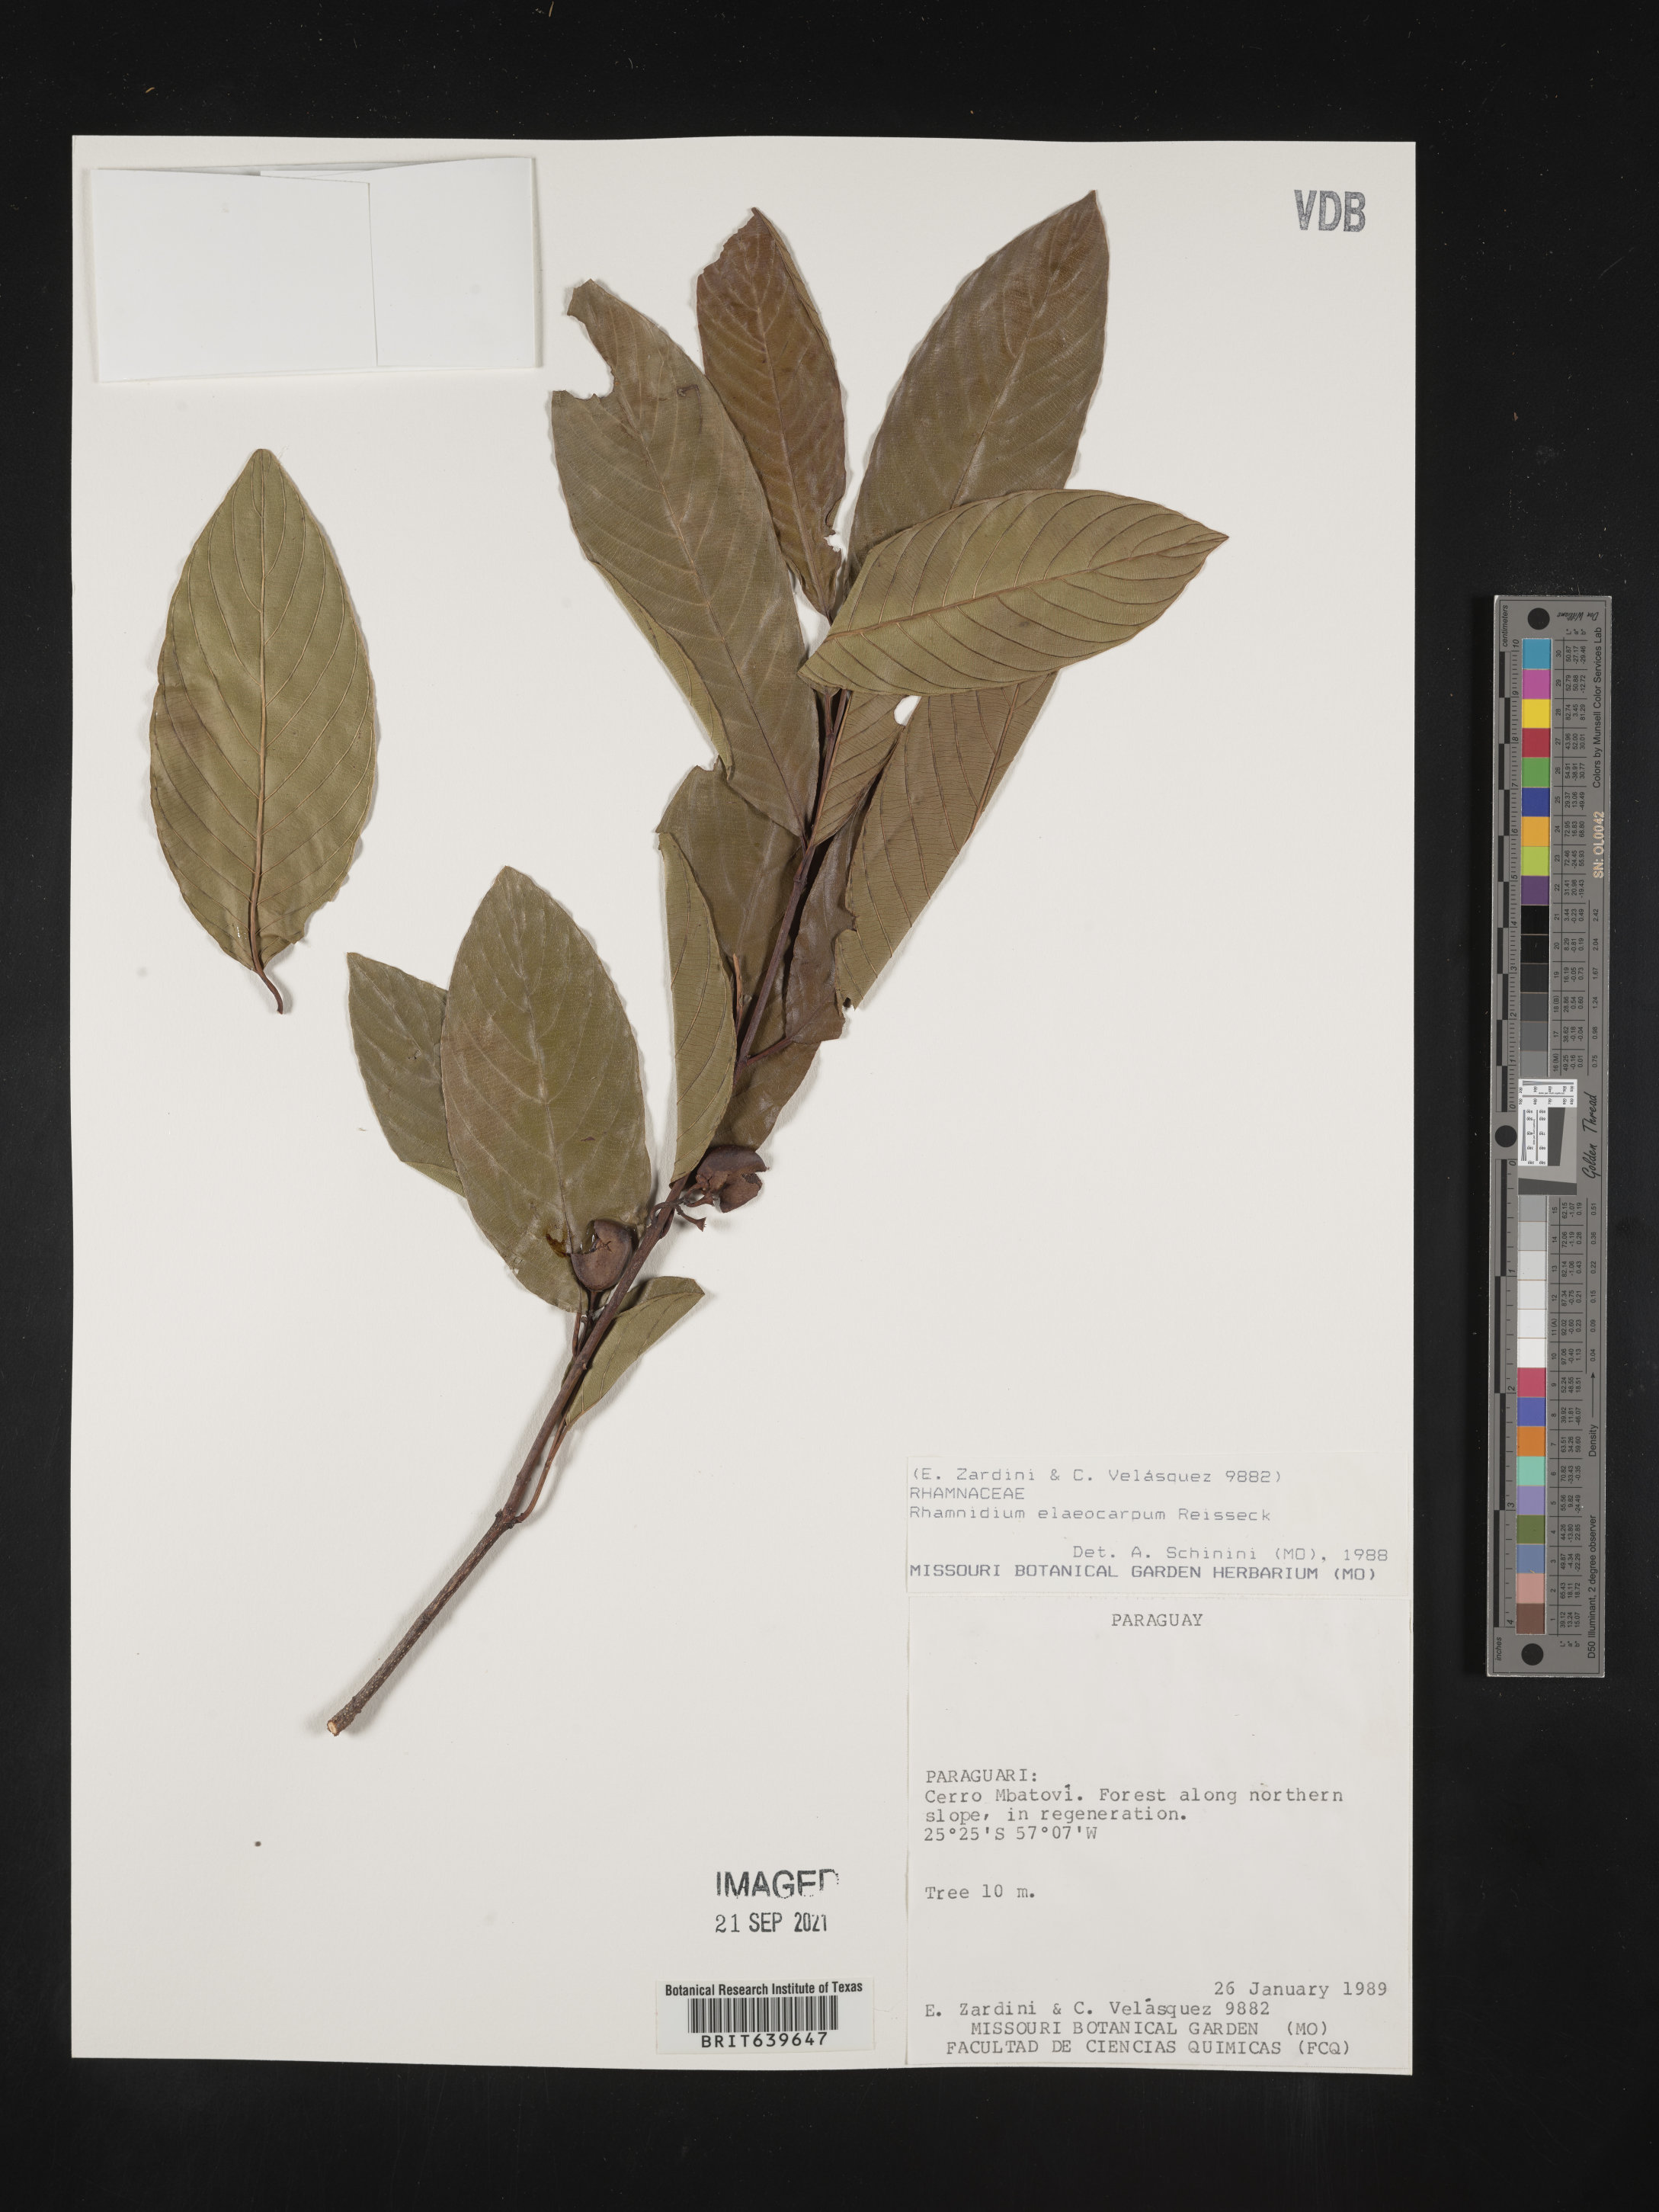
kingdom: Plantae
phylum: Tracheophyta
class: Magnoliopsida
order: Rosales
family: Rhamnaceae
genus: Rhamnidium
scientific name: Rhamnidium
